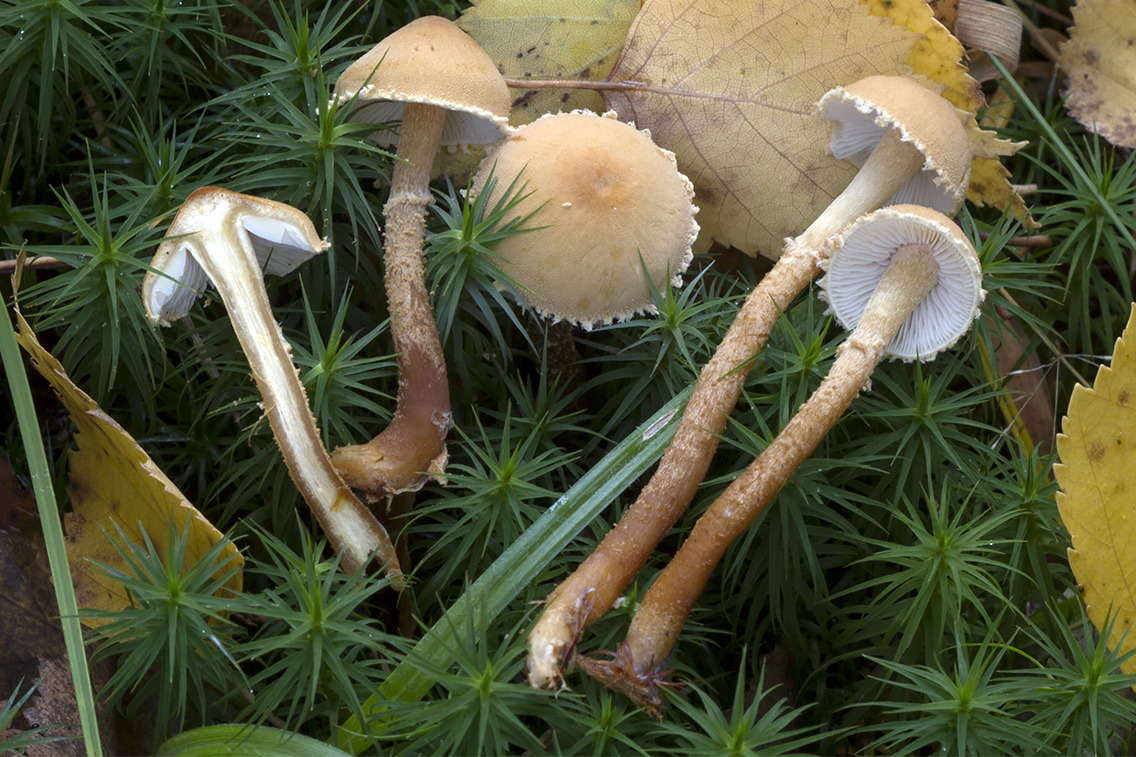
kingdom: Fungi
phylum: Basidiomycota
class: Agaricomycetes
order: Agaricales
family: Tricholomataceae
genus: Cystoderma
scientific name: Cystoderma amianthinum
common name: okkergul grynhat
